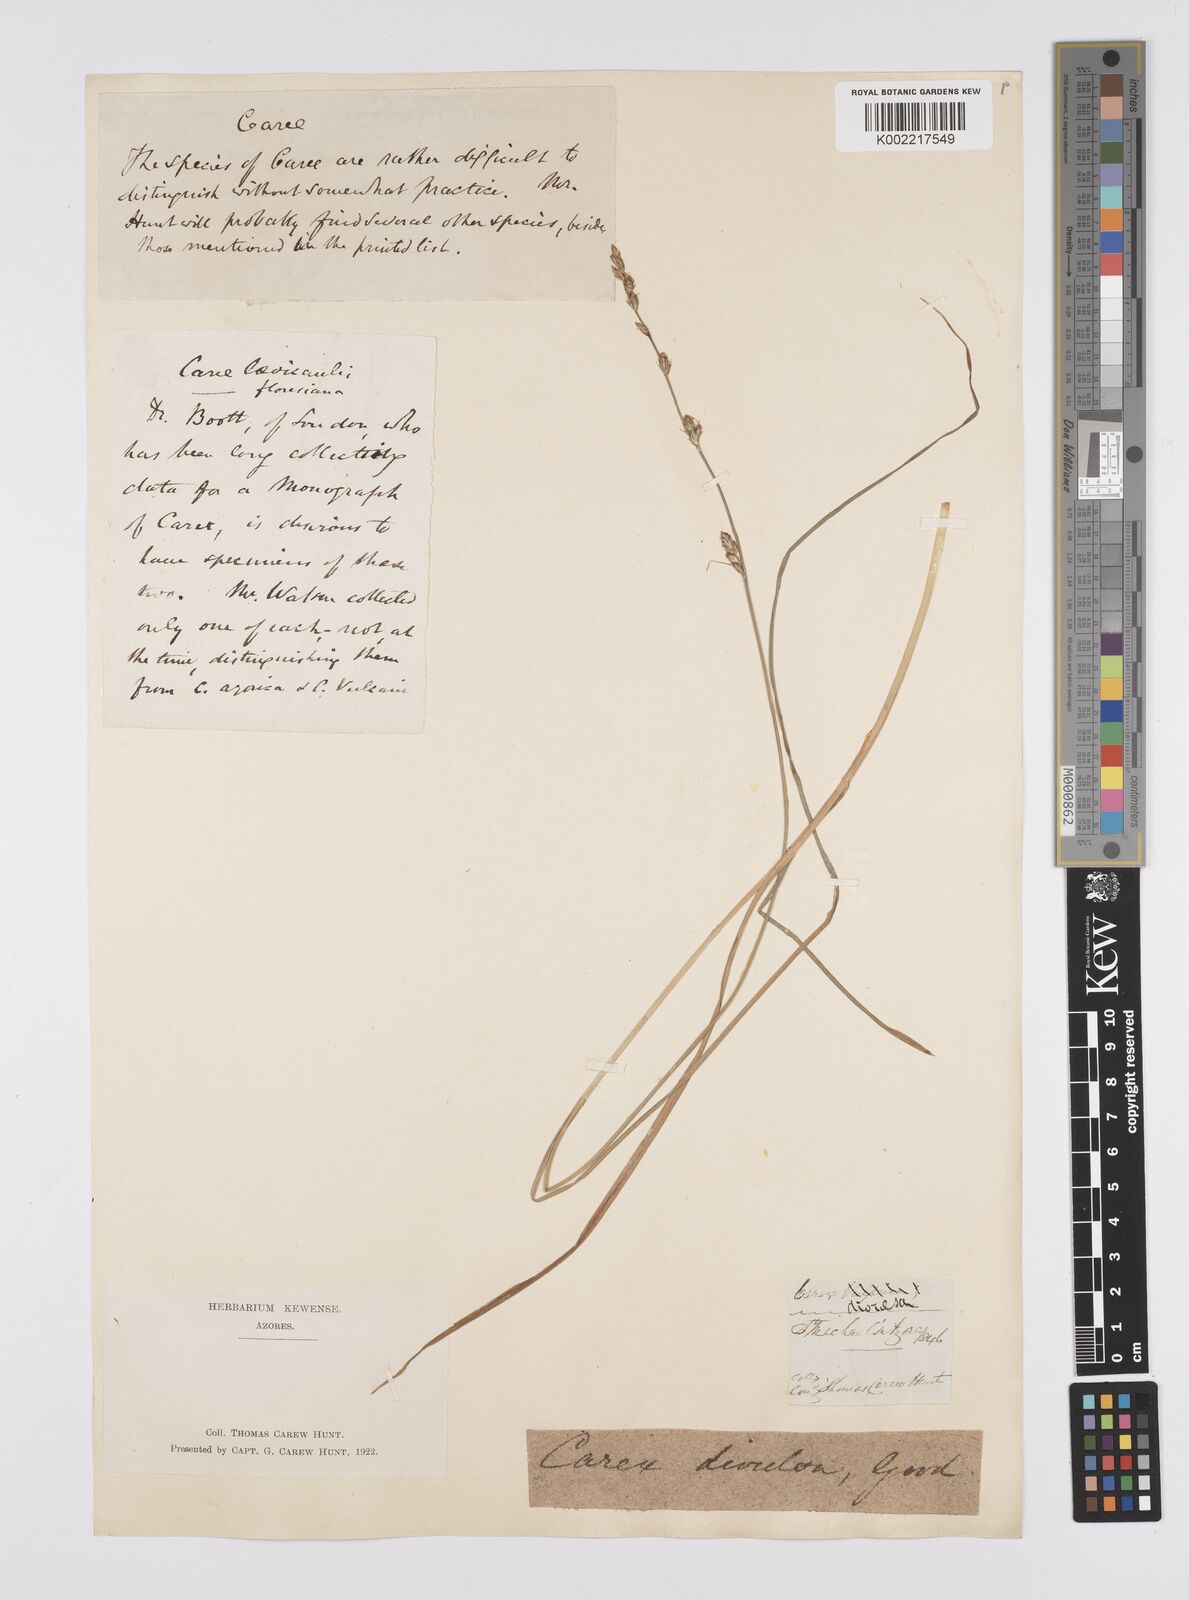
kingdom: Plantae
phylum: Tracheophyta
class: Liliopsida
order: Poales
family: Cyperaceae
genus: Carex
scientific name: Carex divulsa
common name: Grassland sedge
